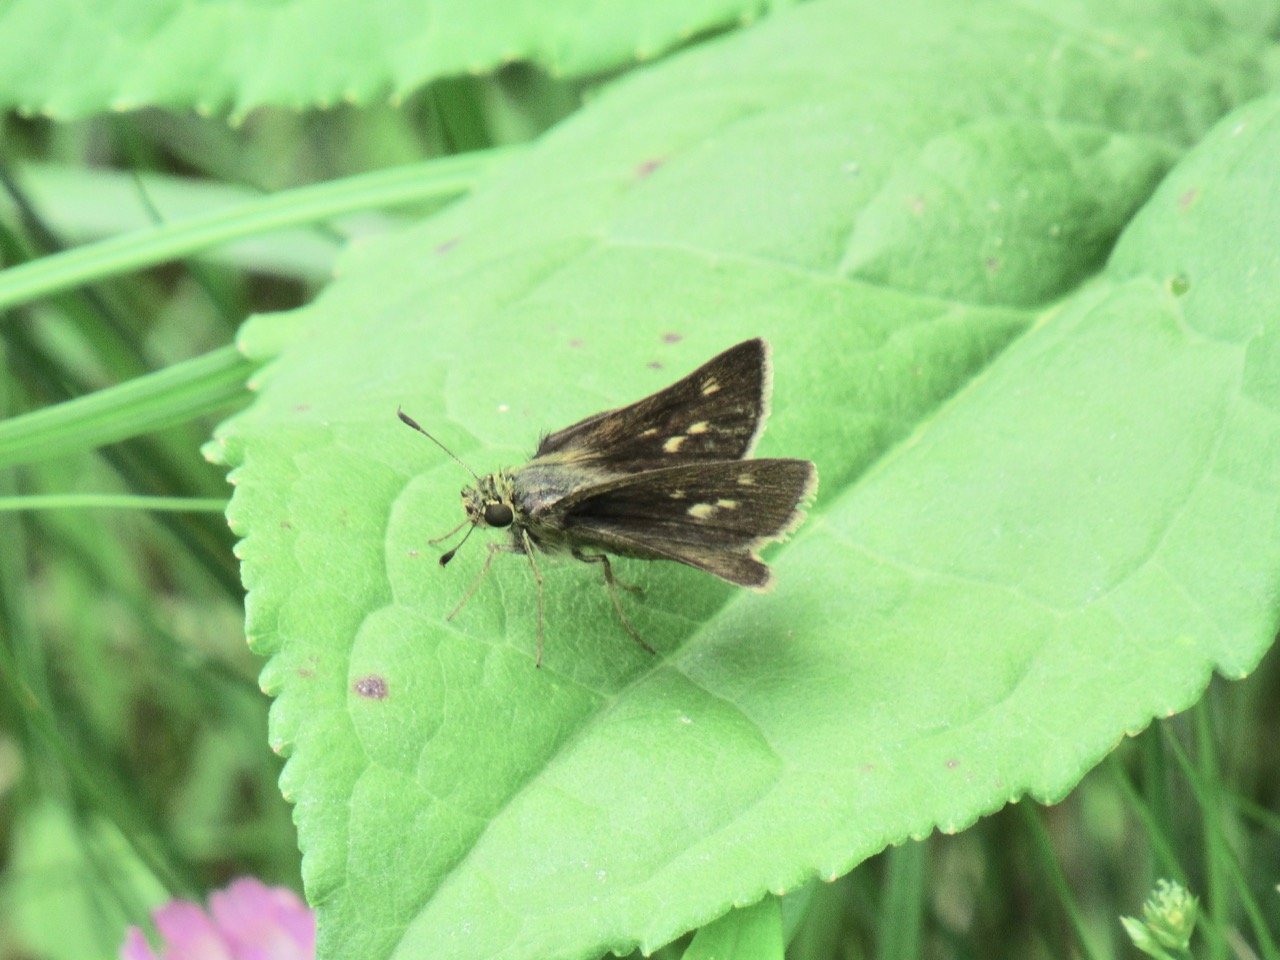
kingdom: Animalia
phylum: Arthropoda
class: Insecta
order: Lepidoptera
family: Hesperiidae
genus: Polites
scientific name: Polites egeremet
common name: Northern Broken-Dash
